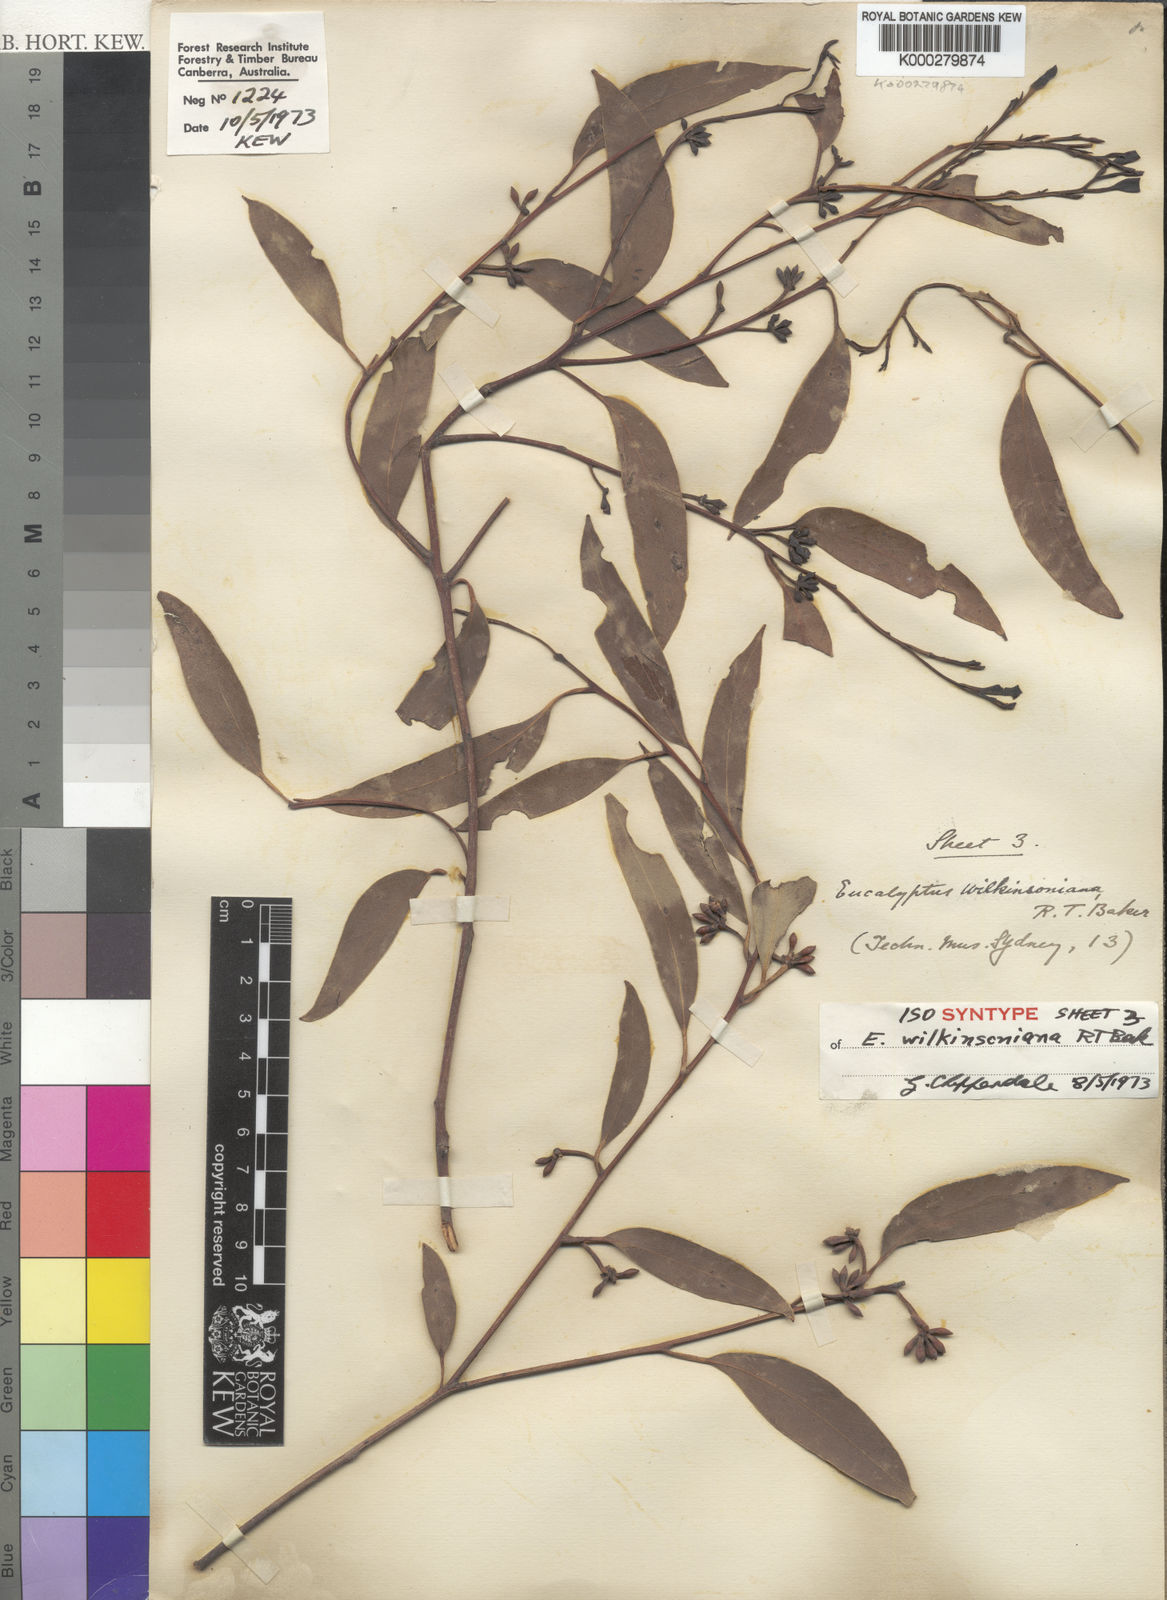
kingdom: Plantae
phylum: Tracheophyta
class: Magnoliopsida
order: Myrtales
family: Myrtaceae
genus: Eucalyptus
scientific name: Eucalyptus eugenioides
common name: Narrow-leaved-stringybark
